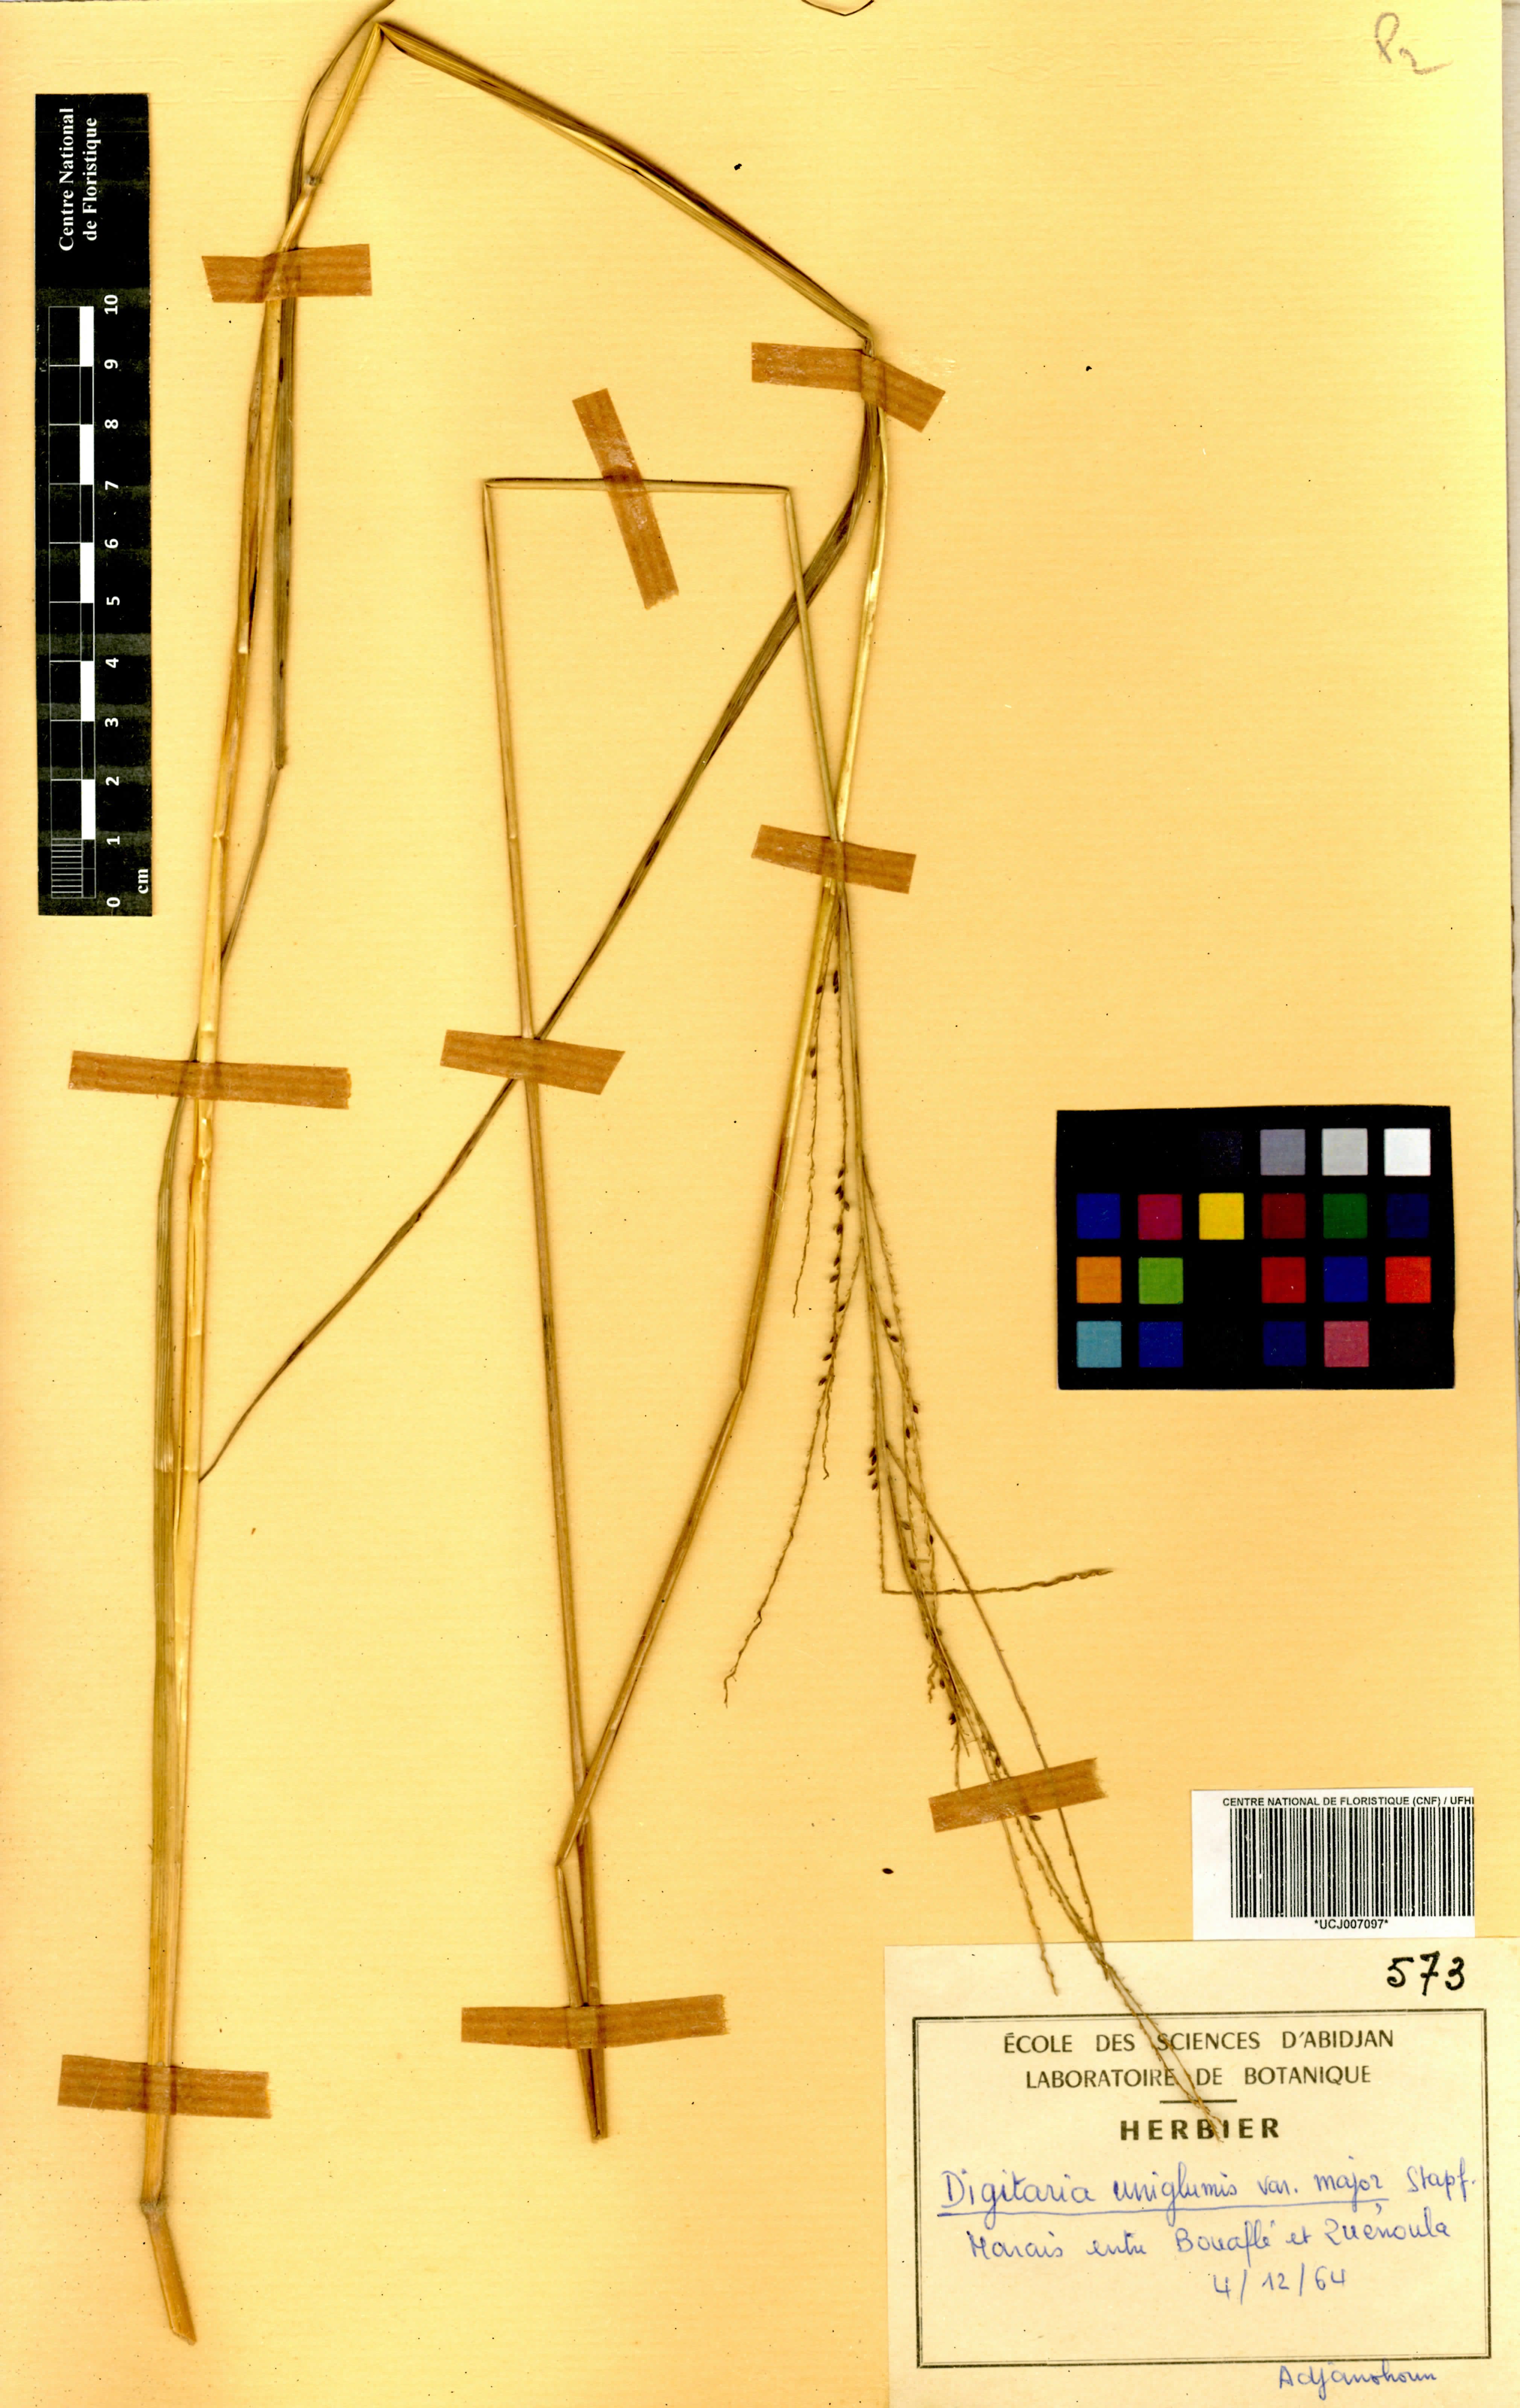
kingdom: Plantae
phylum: Tracheophyta
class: Liliopsida
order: Poales
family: Poaceae
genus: Digitaria
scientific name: Digitaria diagonalis
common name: Brown-seed finger grass
